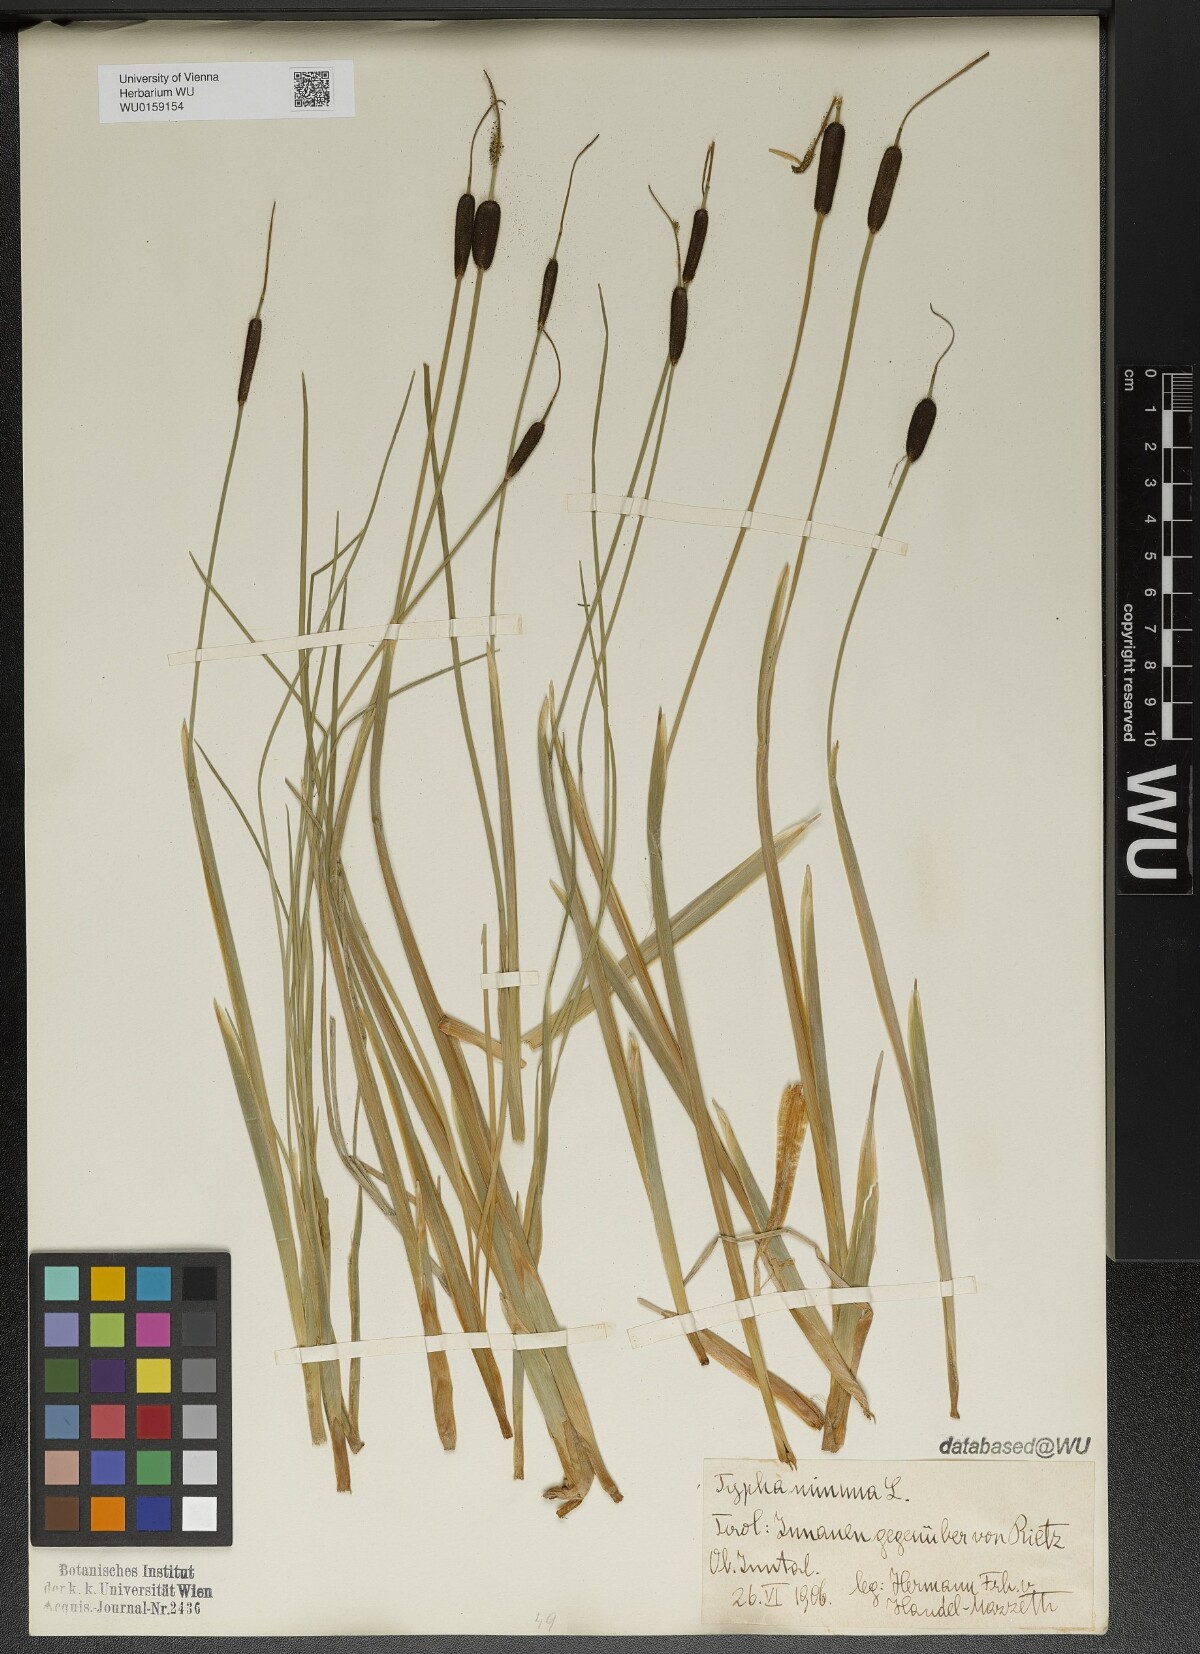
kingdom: Plantae
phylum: Tracheophyta
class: Liliopsida
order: Poales
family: Typhaceae
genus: Typha
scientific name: Typha minima
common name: Dwarf bulrush
